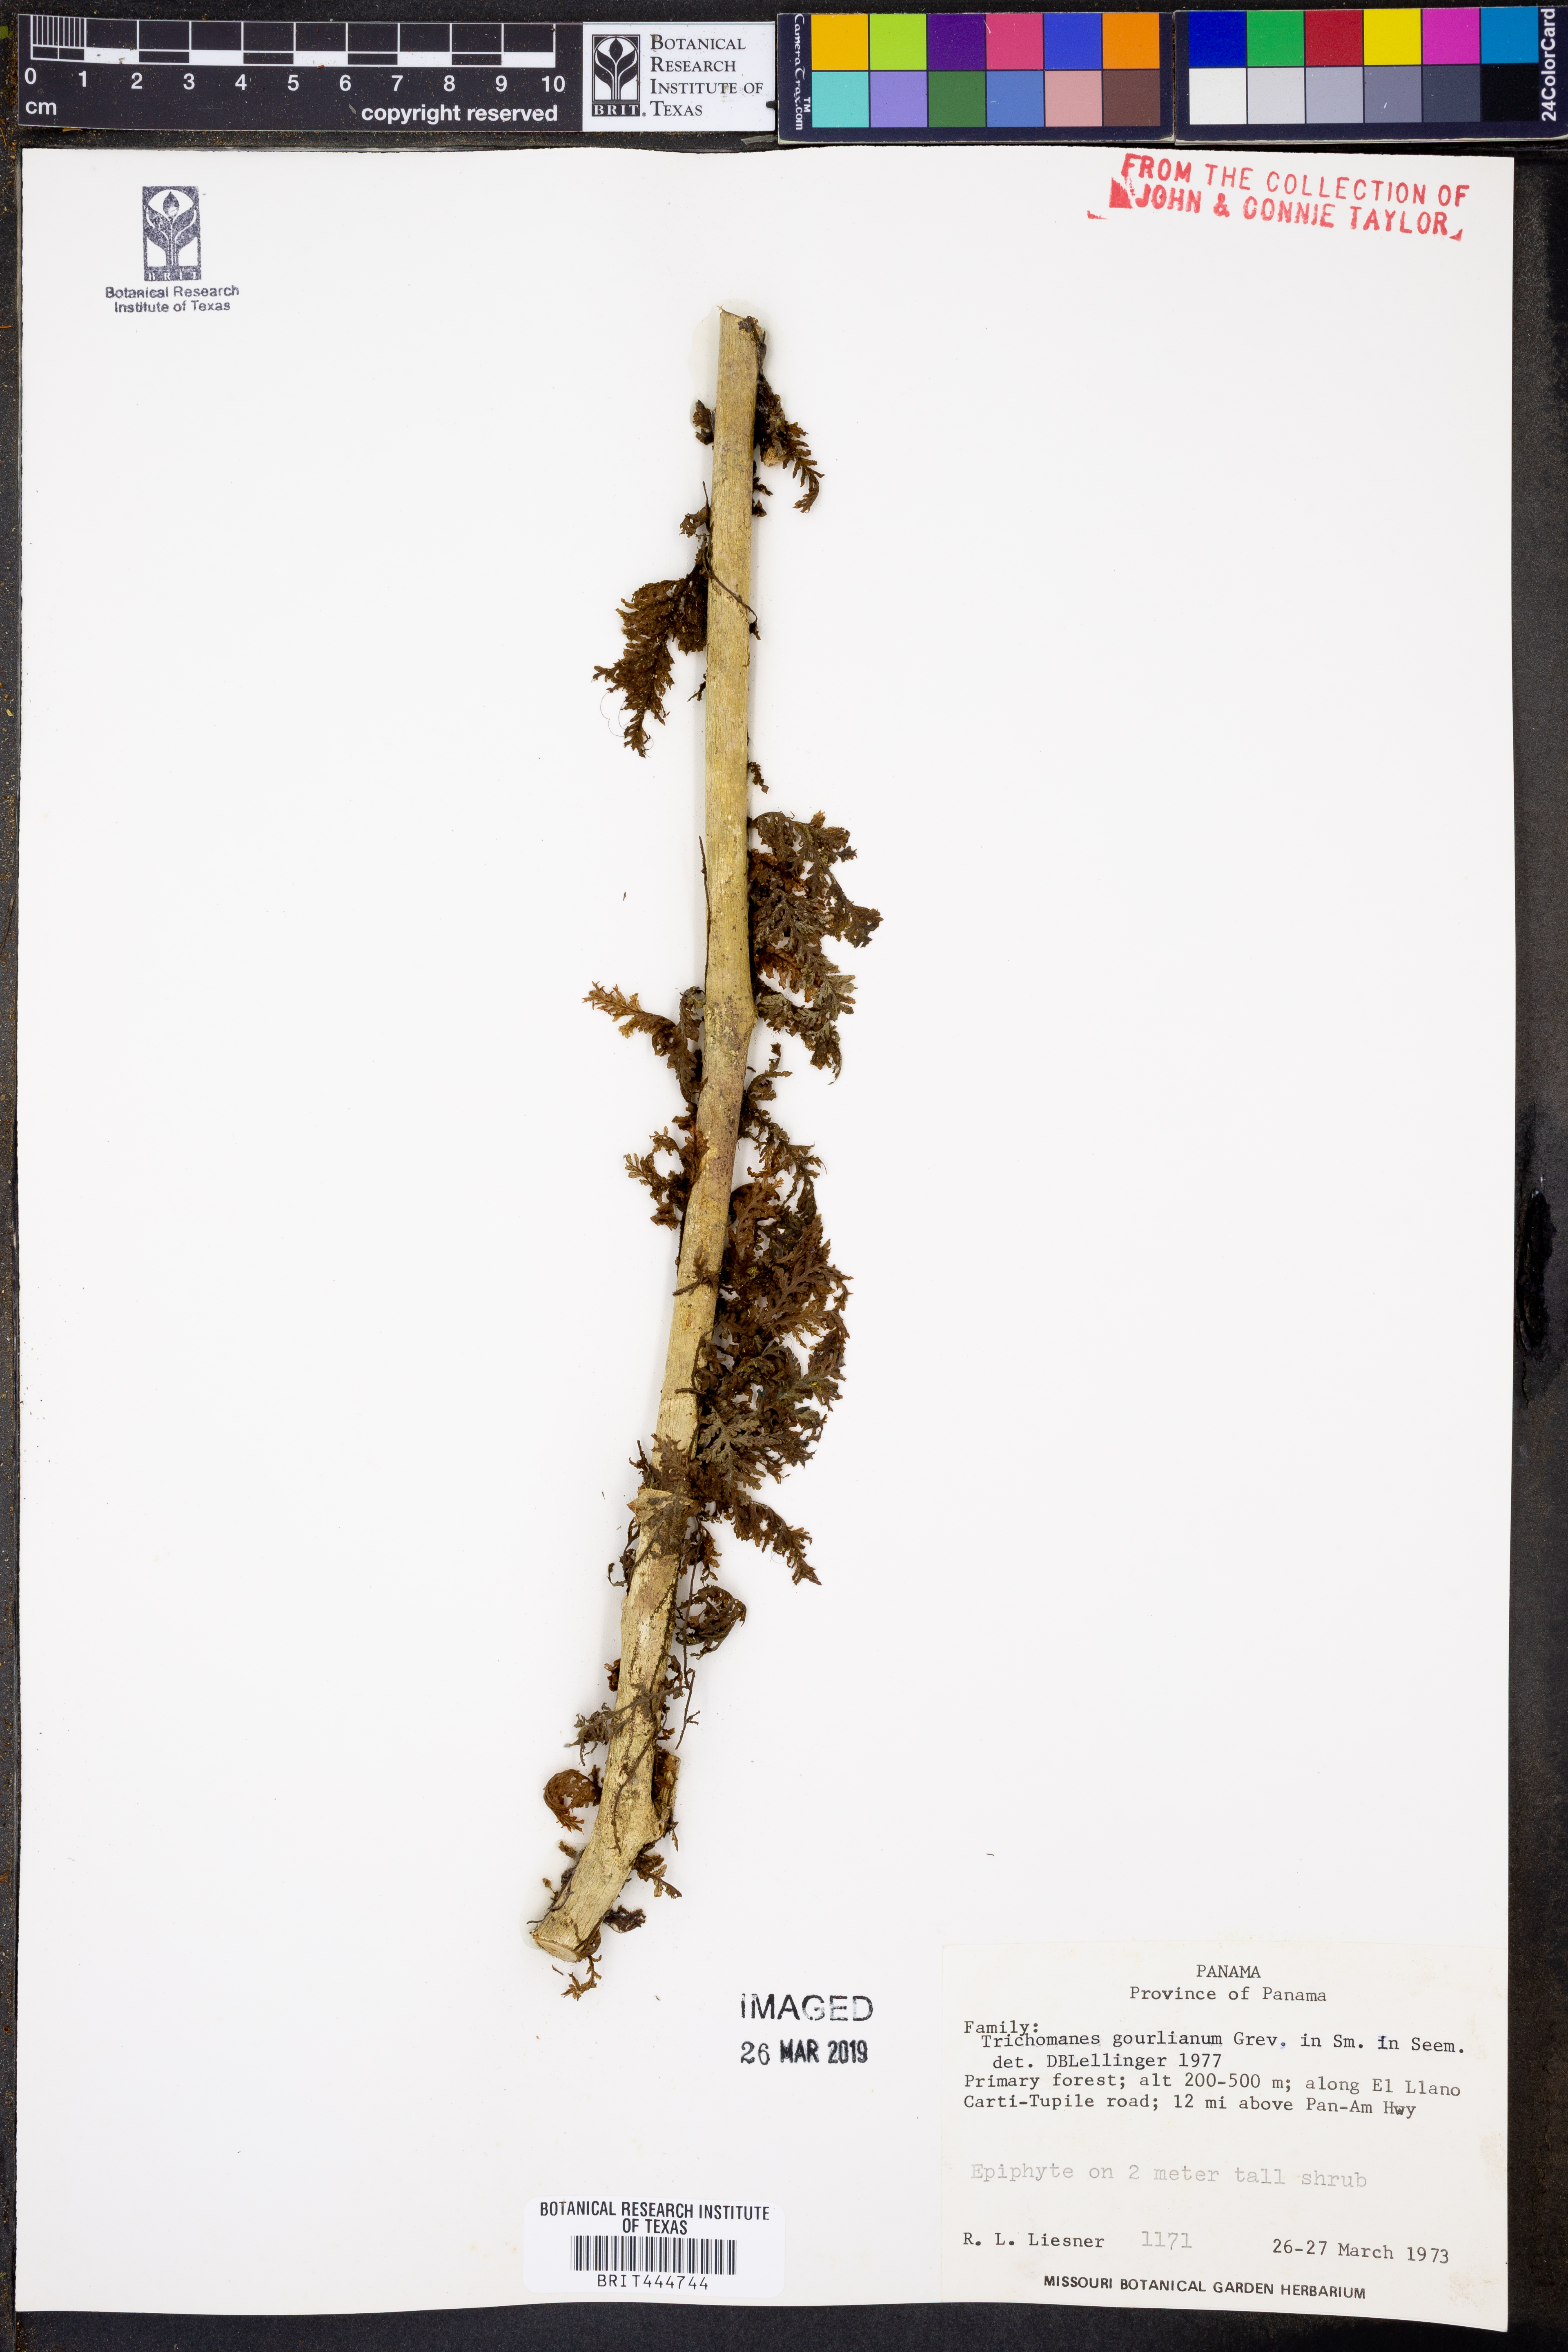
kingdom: Plantae
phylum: Tracheophyta
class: Polypodiopsida
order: Hymenophyllales
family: Hymenophyllaceae
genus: Didymoglossum
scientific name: Didymoglossum gourlianum
